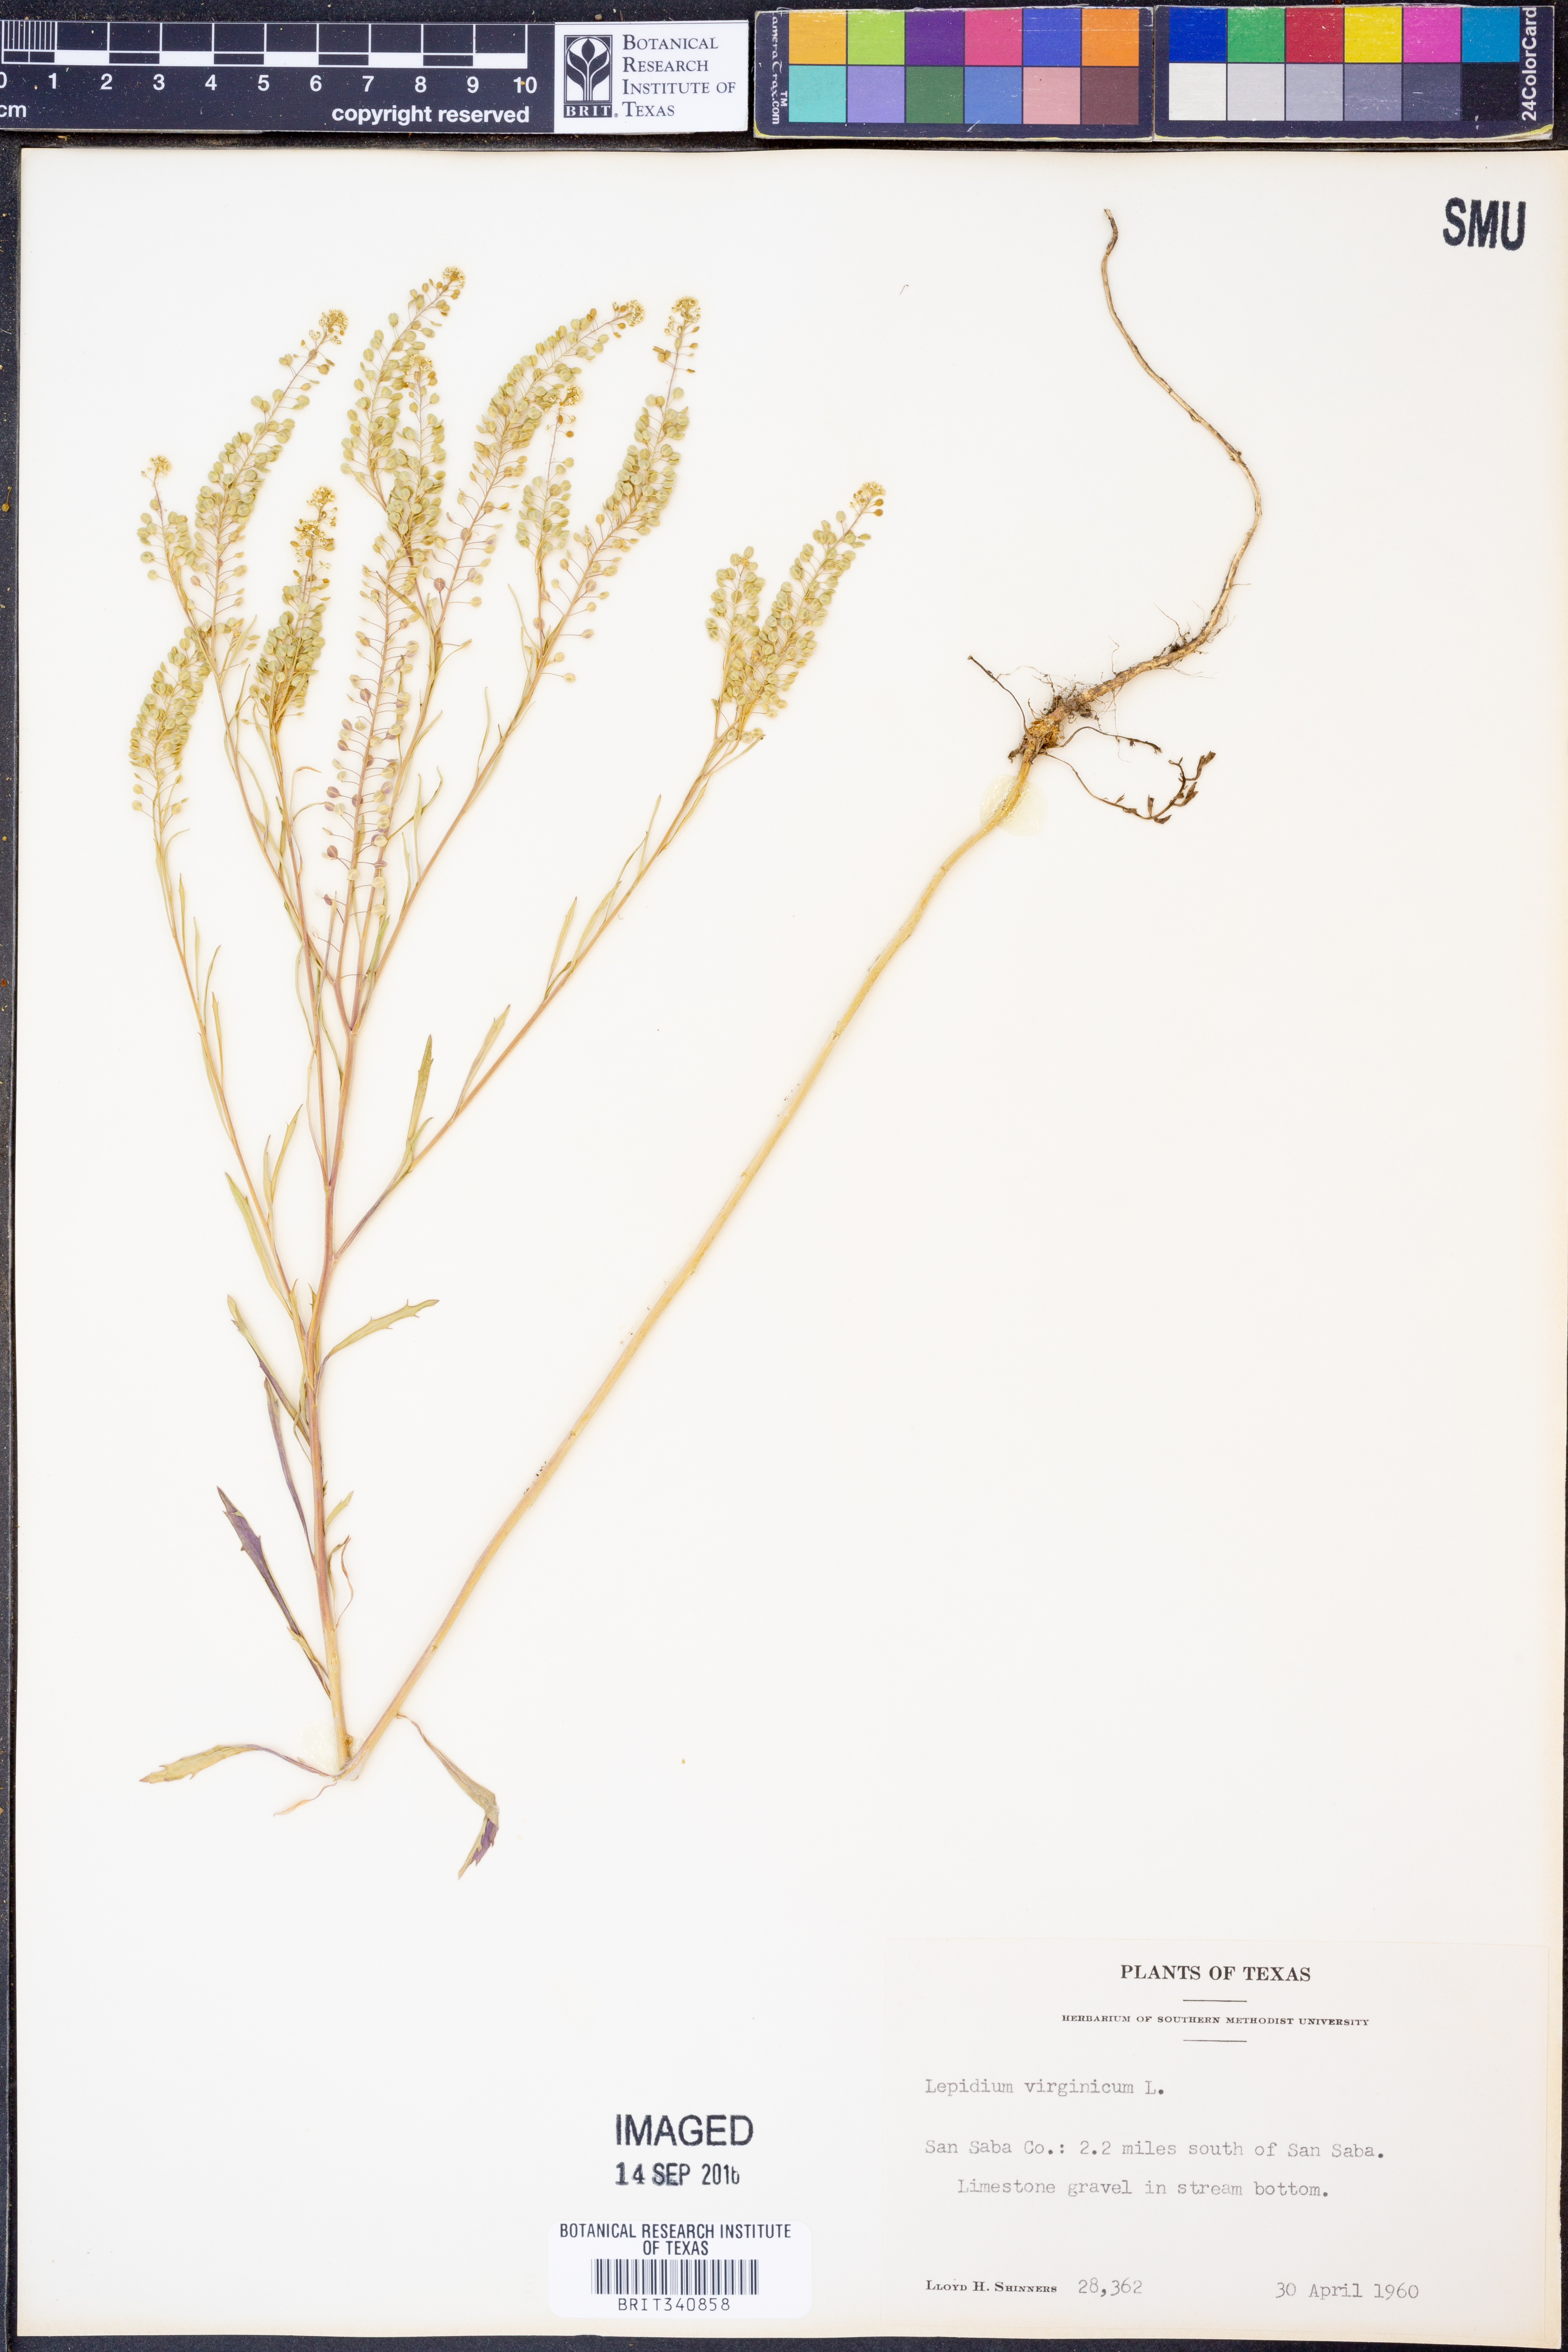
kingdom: Plantae
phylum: Tracheophyta
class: Magnoliopsida
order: Brassicales
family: Brassicaceae
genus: Lepidium
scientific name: Lepidium virginicum
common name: Least pepperwort
